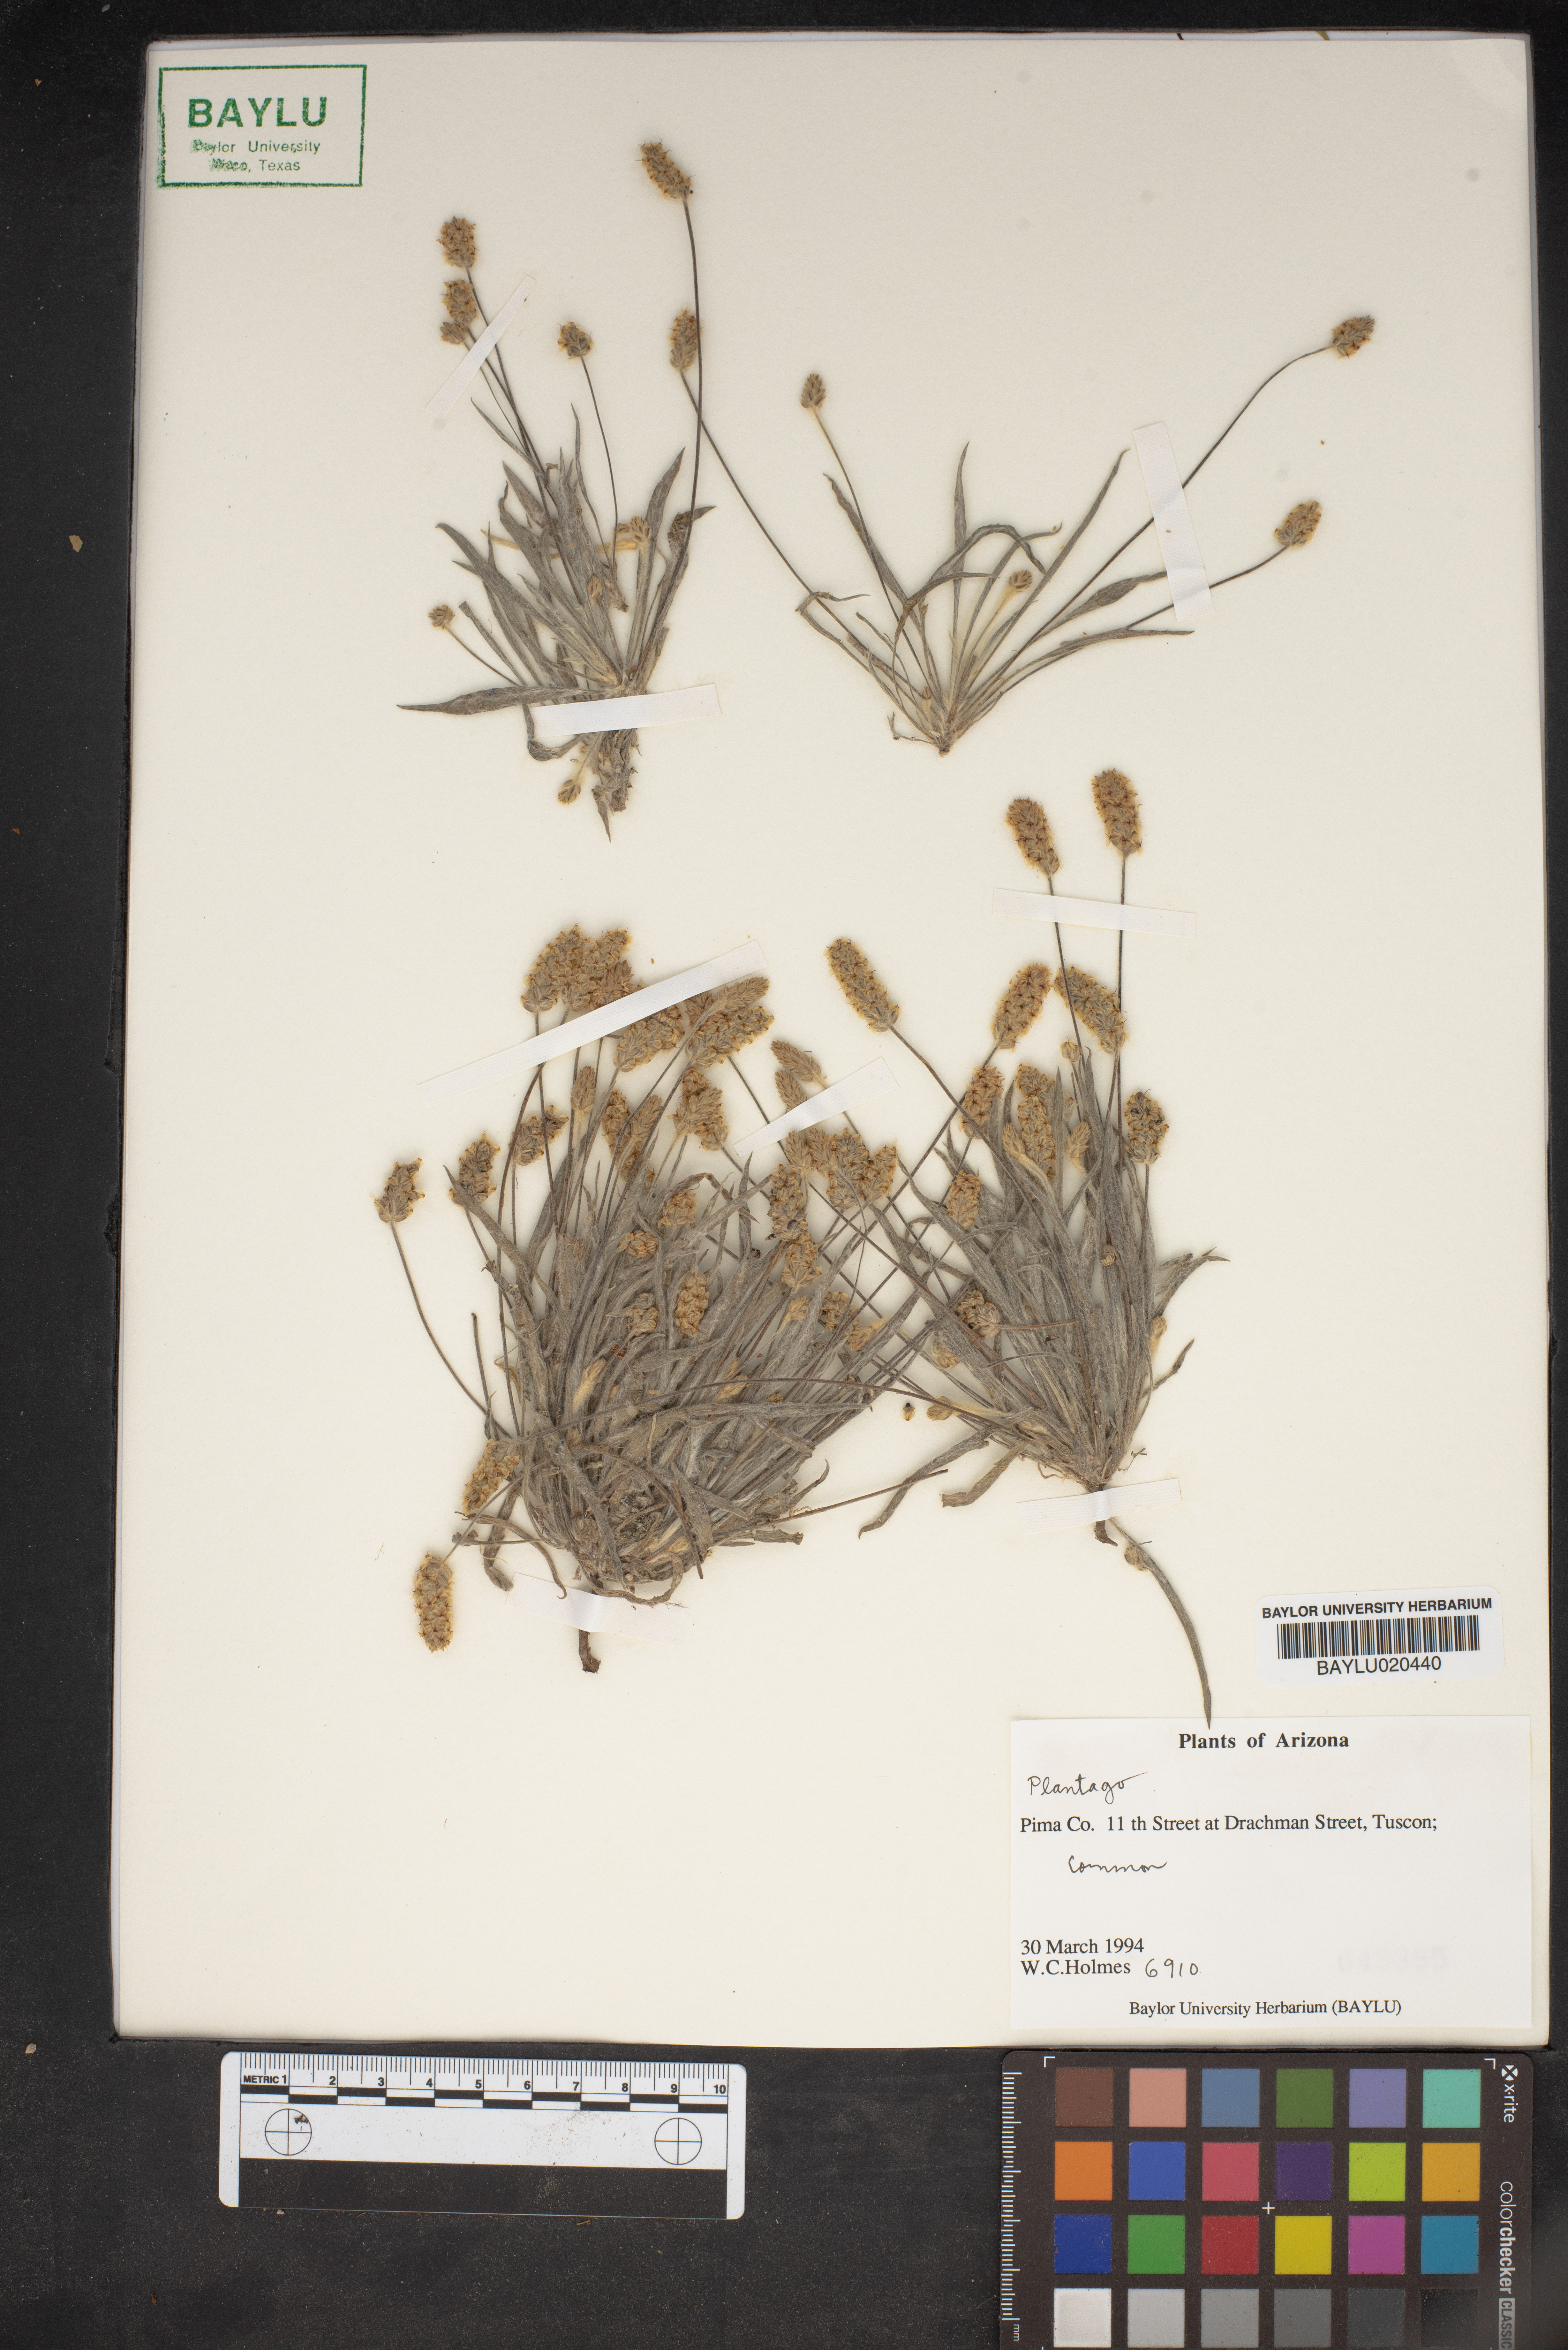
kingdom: Plantae
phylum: Tracheophyta
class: Magnoliopsida
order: Lamiales
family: Plantaginaceae
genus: Plantago
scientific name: Plantago
